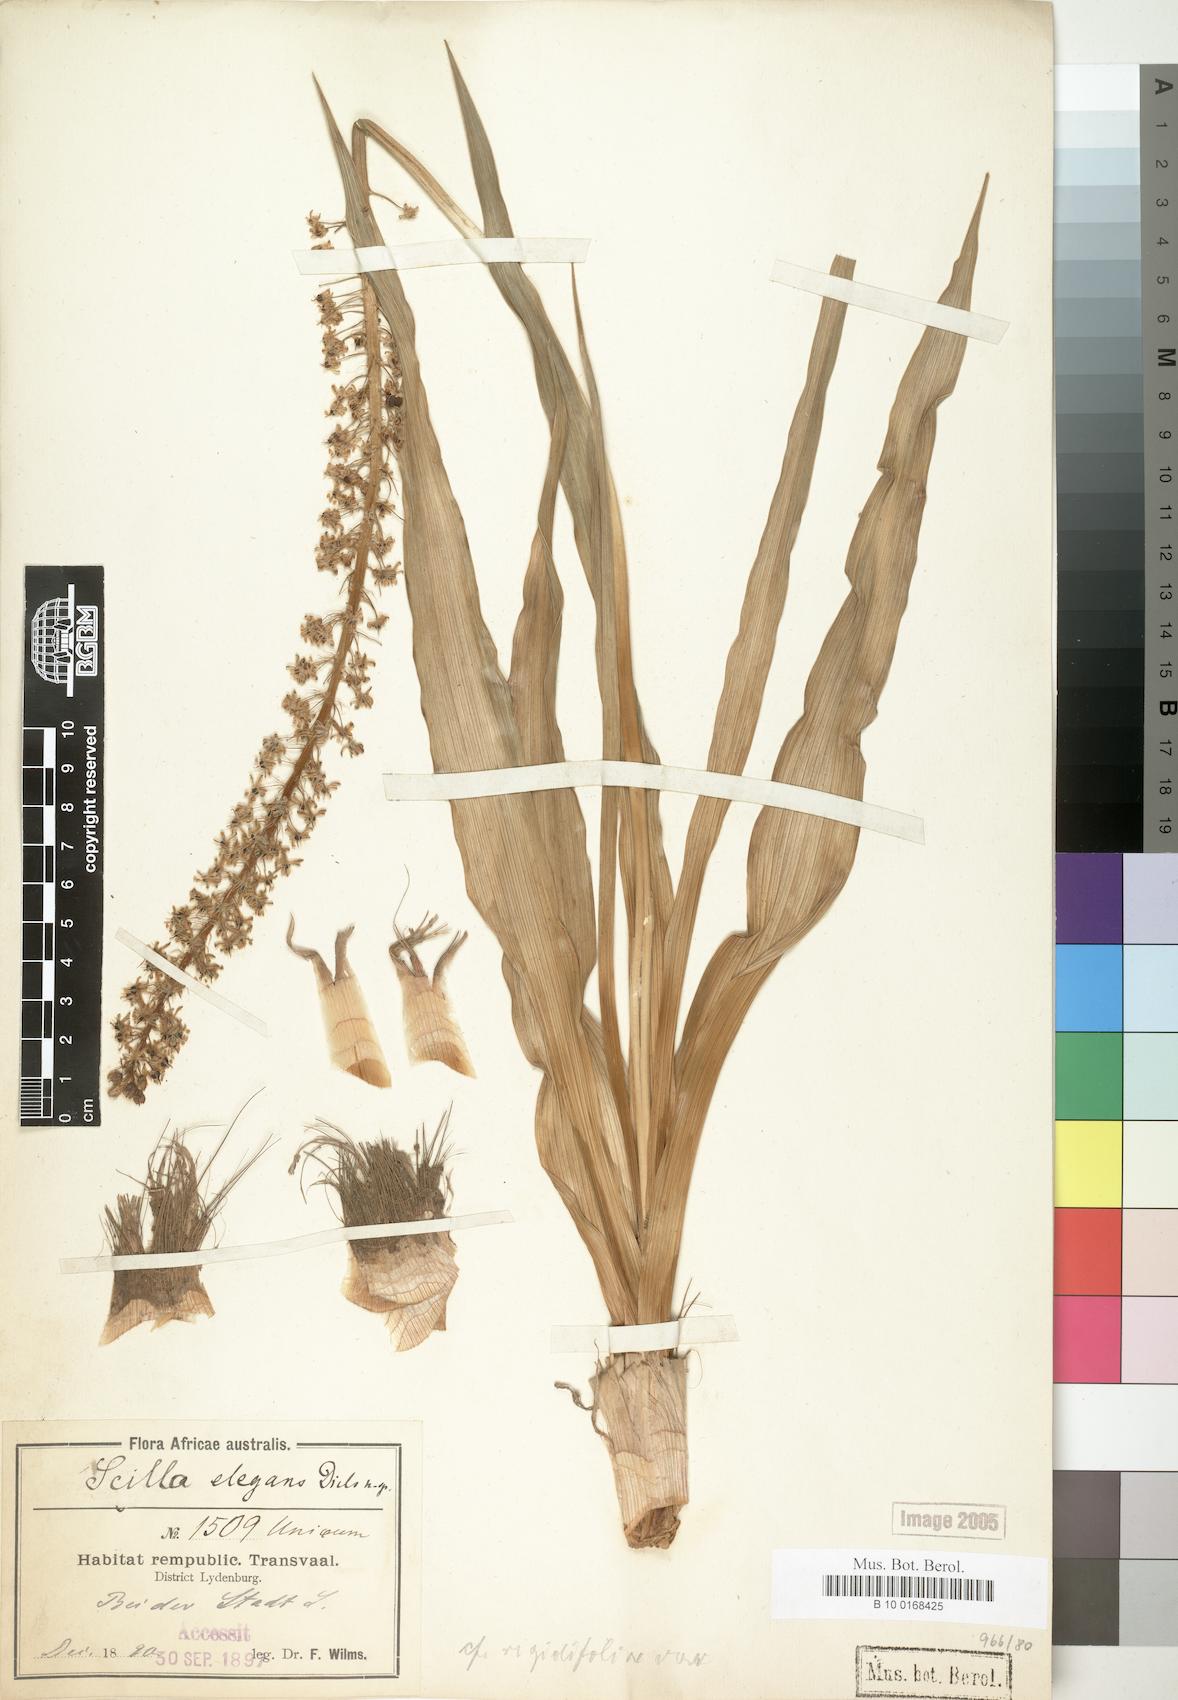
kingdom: Plantae
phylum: Tracheophyta
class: Liliopsida
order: Asparagales
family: Asparagaceae
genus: Scilla
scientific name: Scilla
